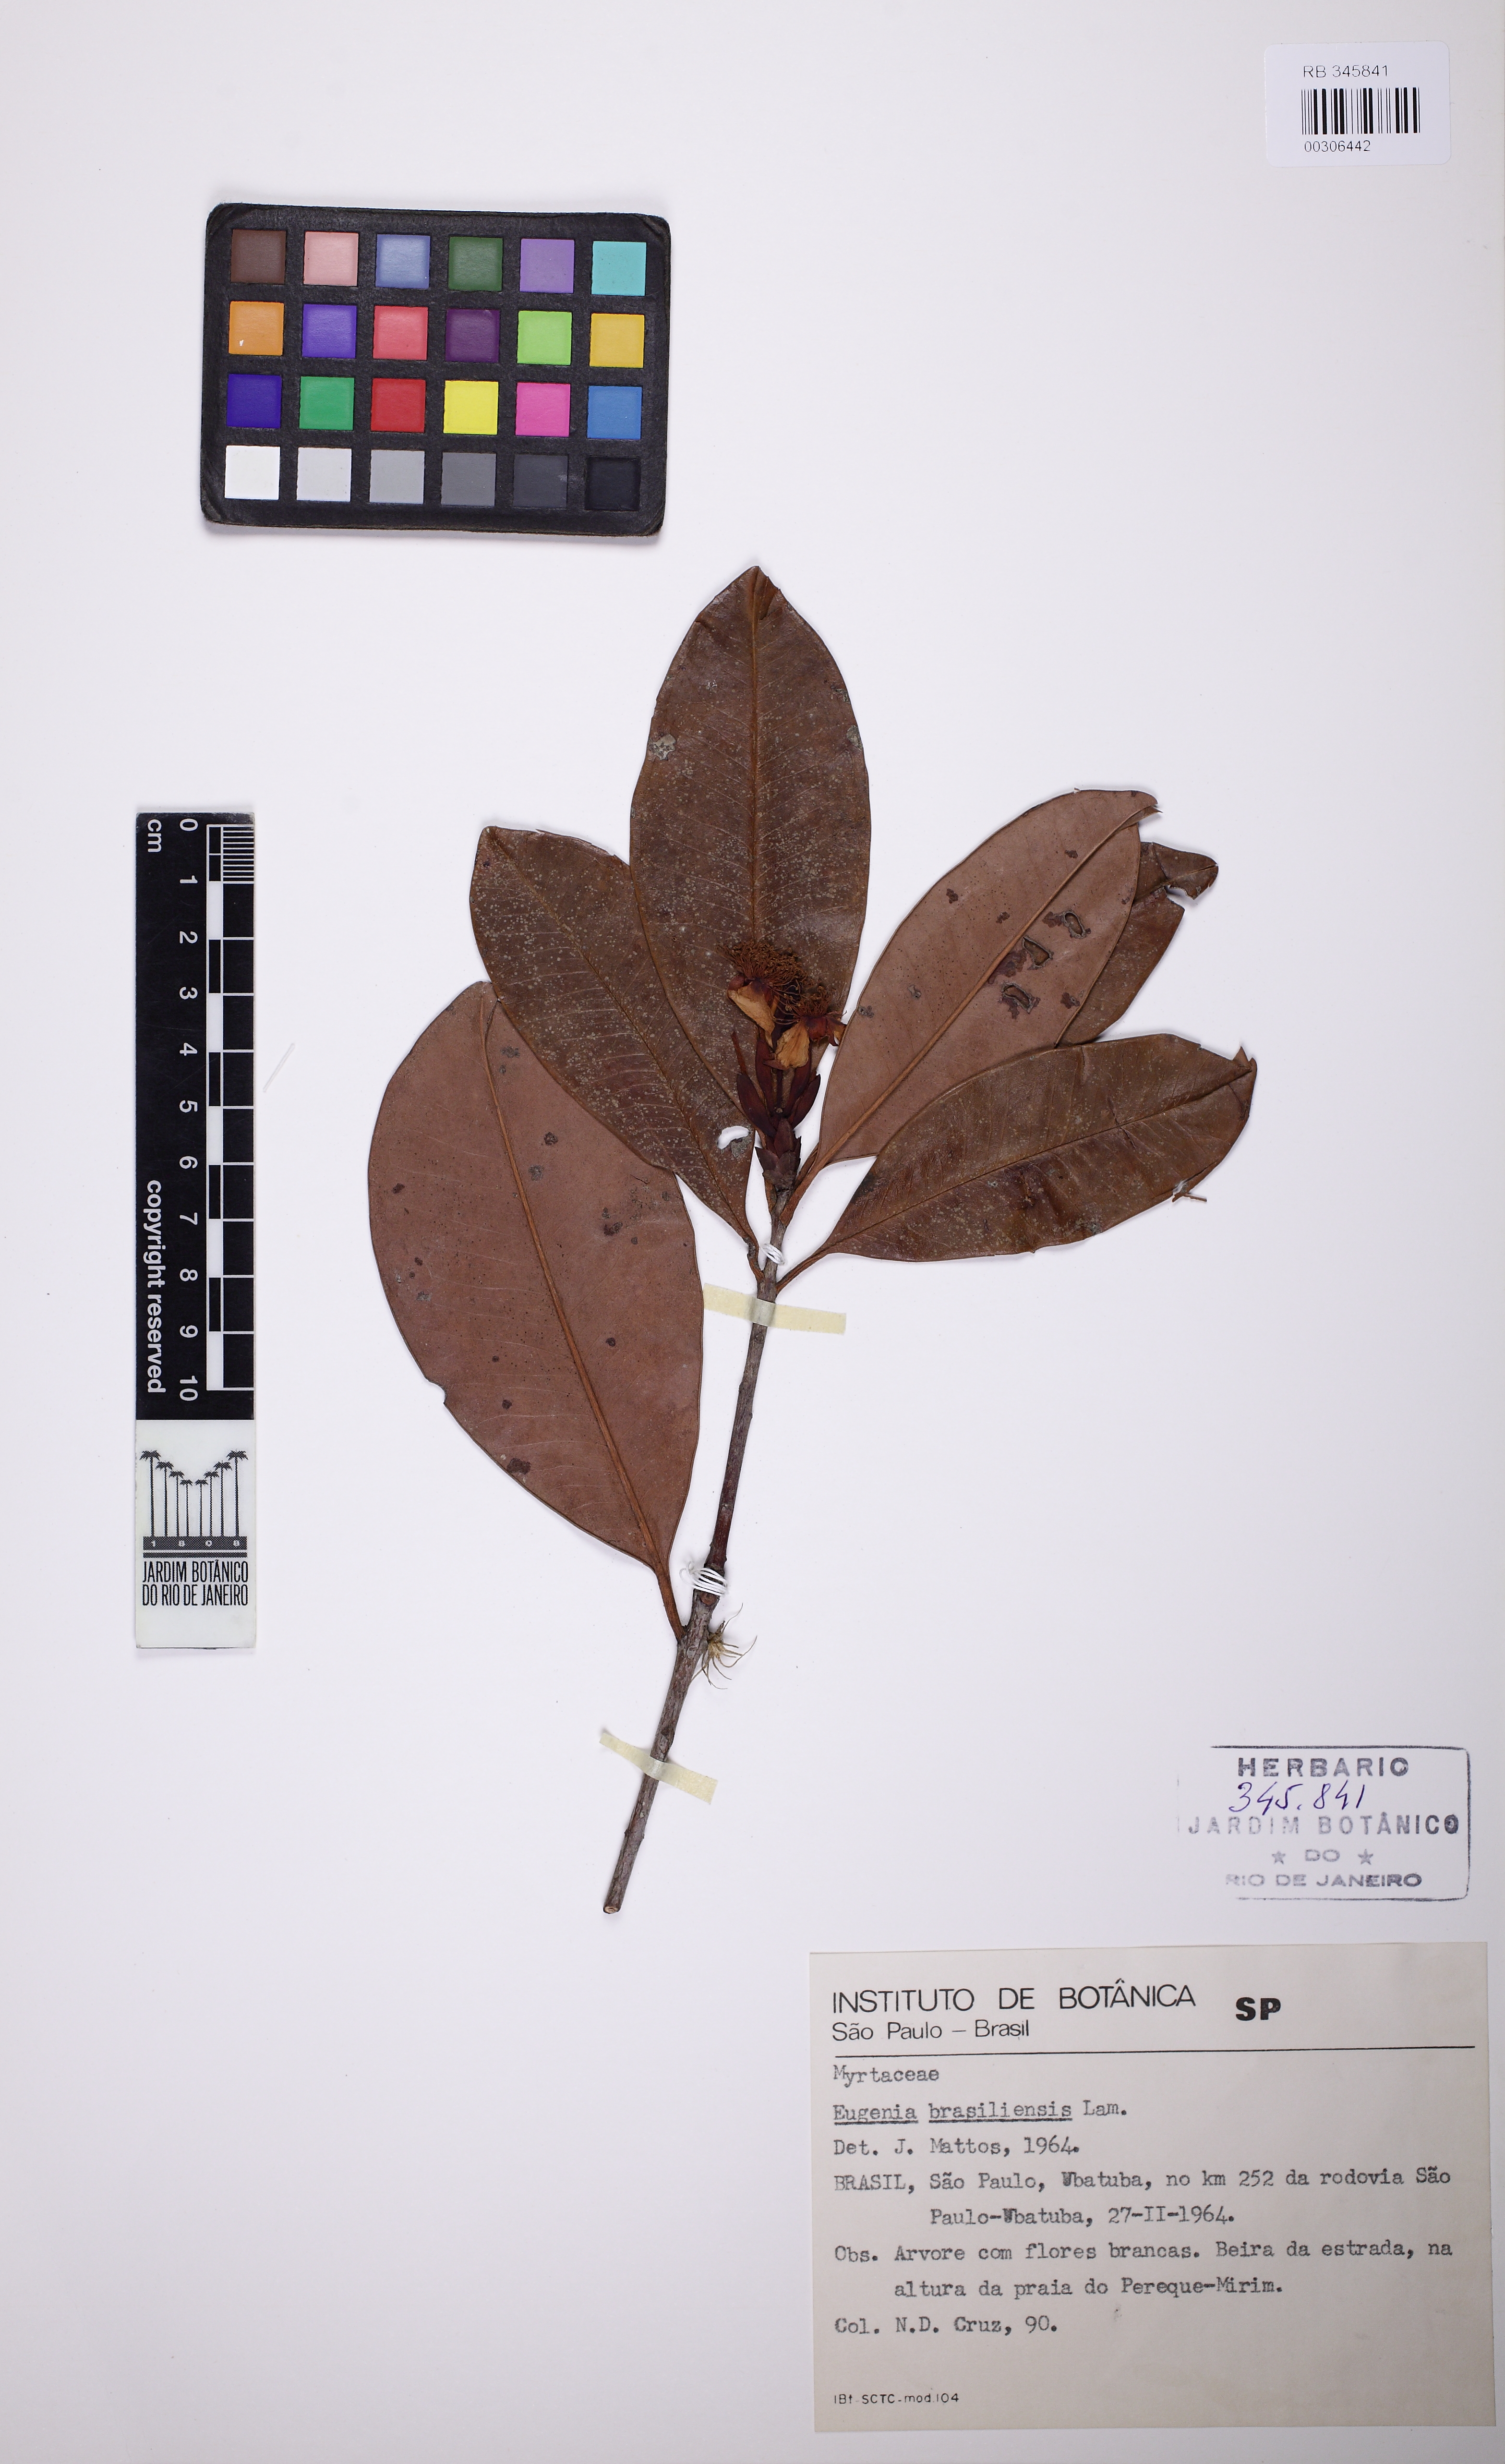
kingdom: Plantae
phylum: Tracheophyta
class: Magnoliopsida
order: Myrtales
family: Myrtaceae
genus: Eugenia
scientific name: Eugenia brasiliensis
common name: Grumichama
